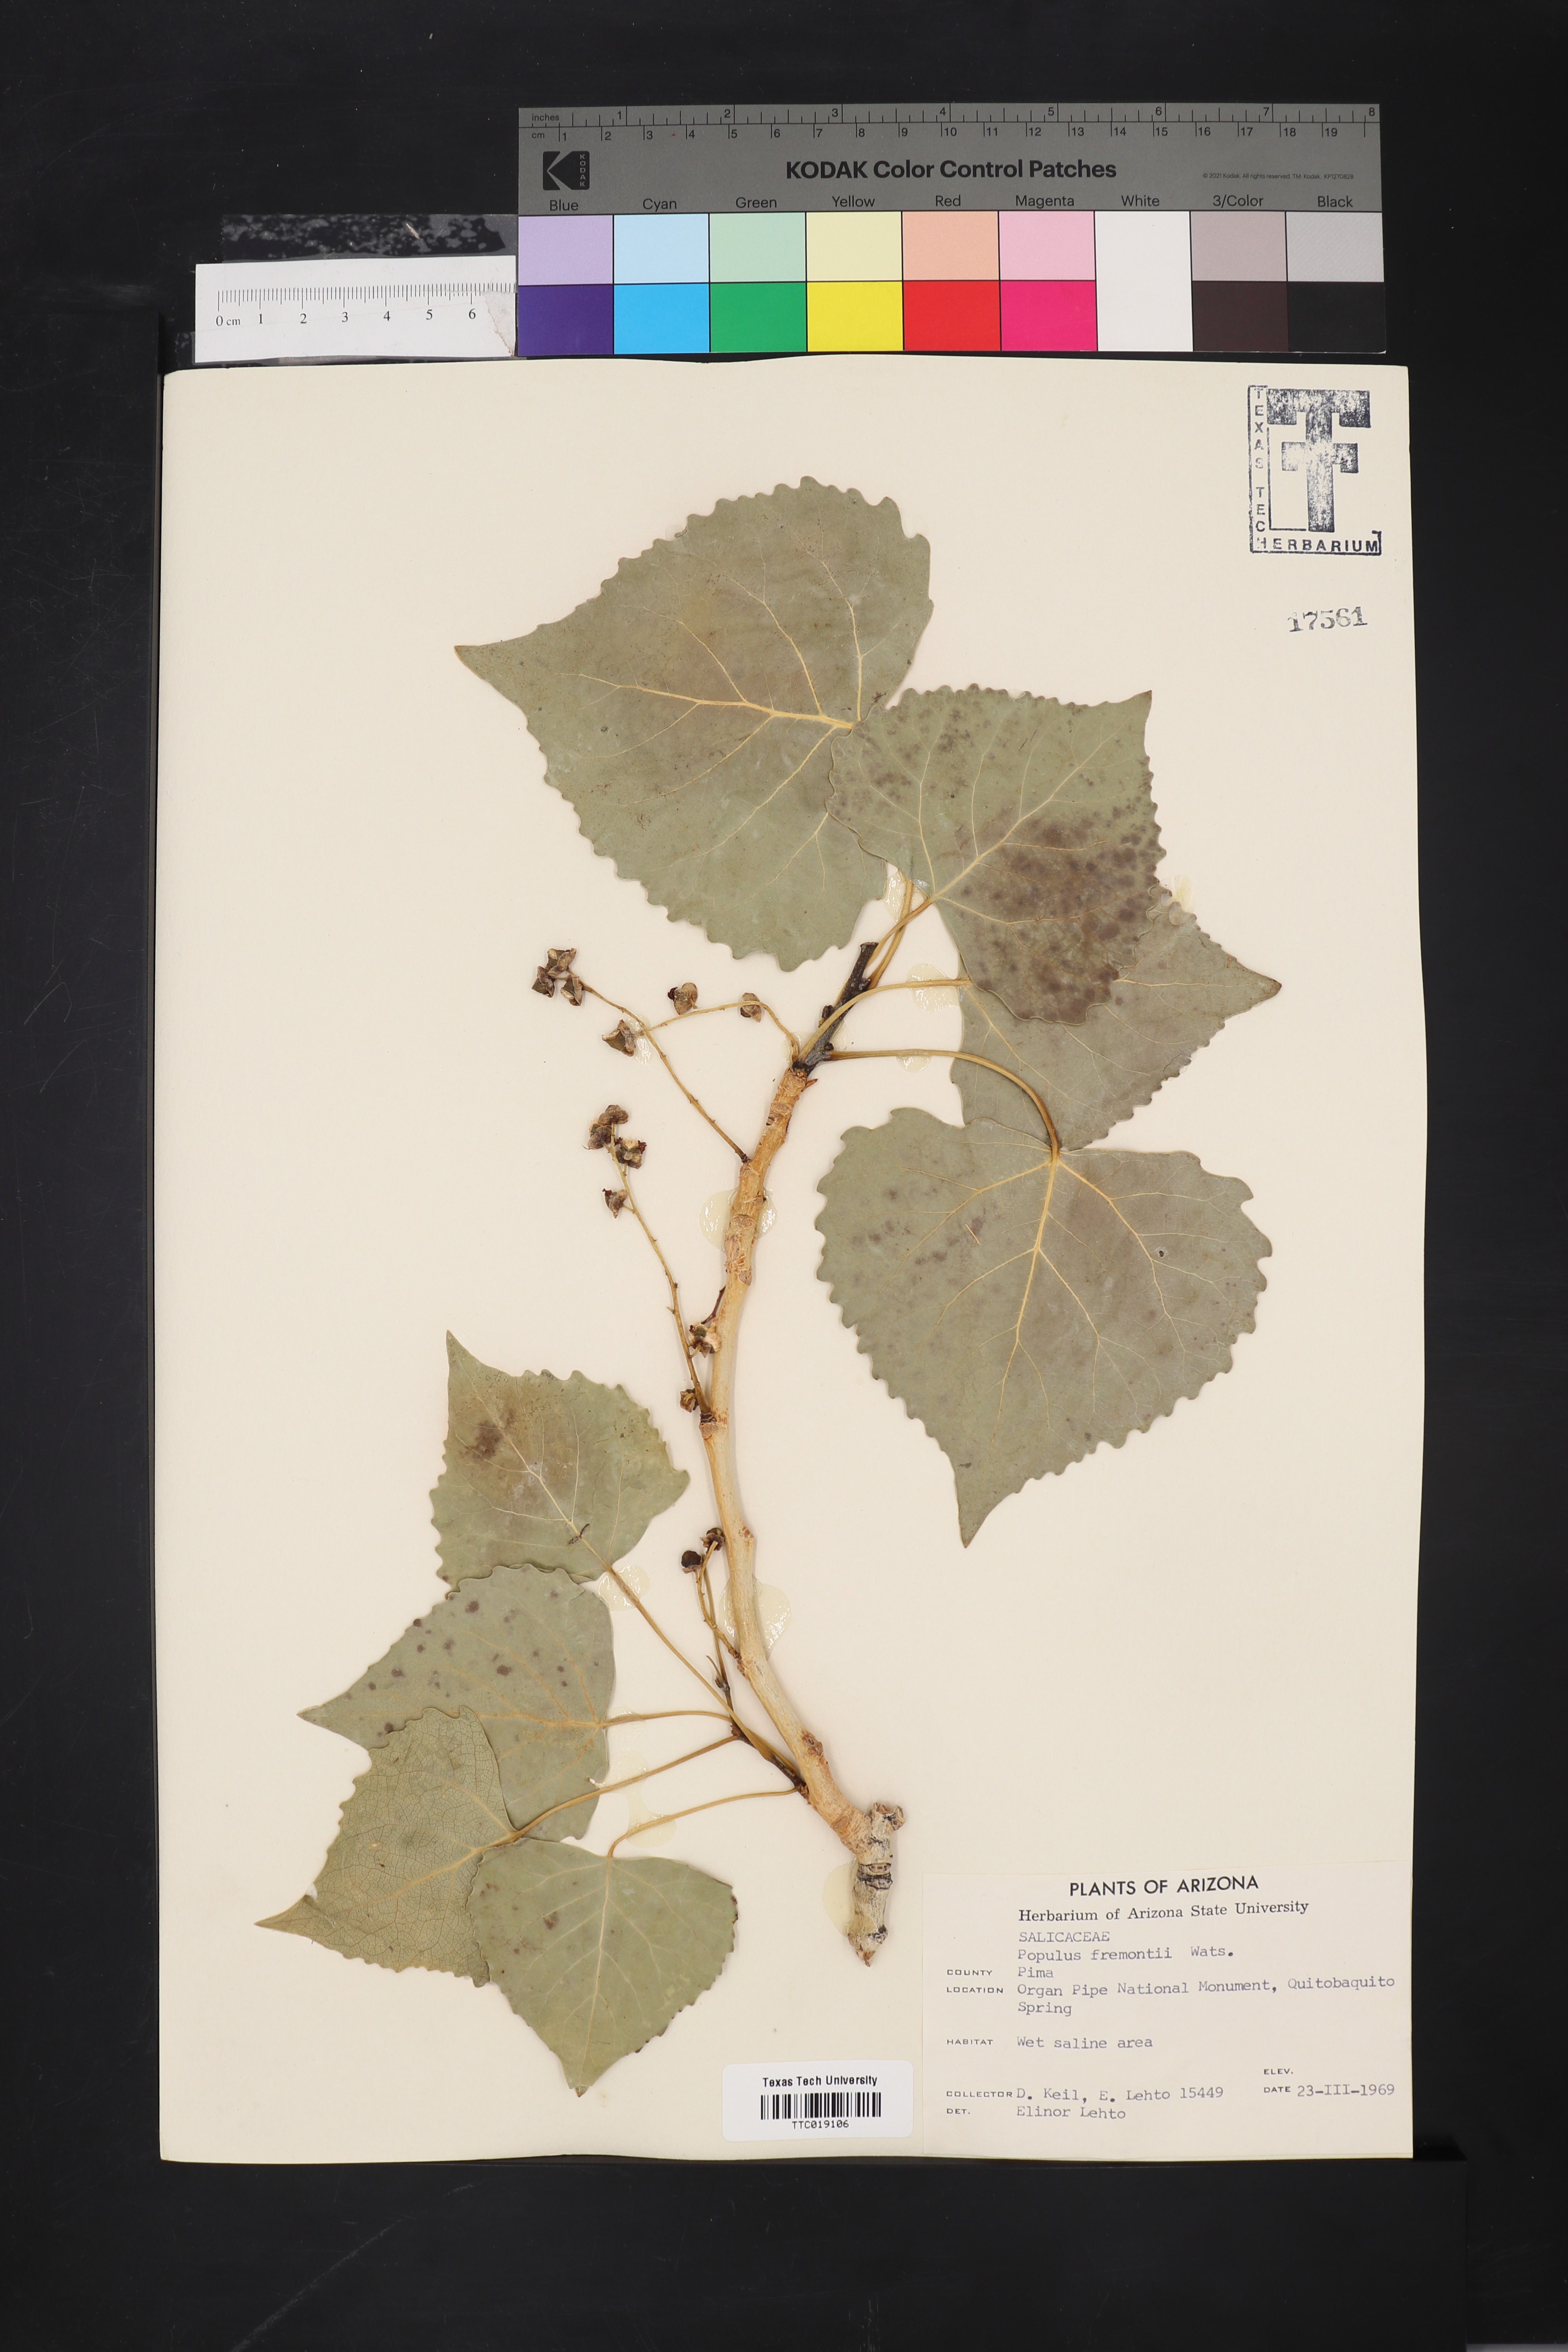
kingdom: Plantae
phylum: Tracheophyta
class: Magnoliopsida
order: Malpighiales
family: Salicaceae
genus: Populus
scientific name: Populus fremontii
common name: Fremont's cottonwood
